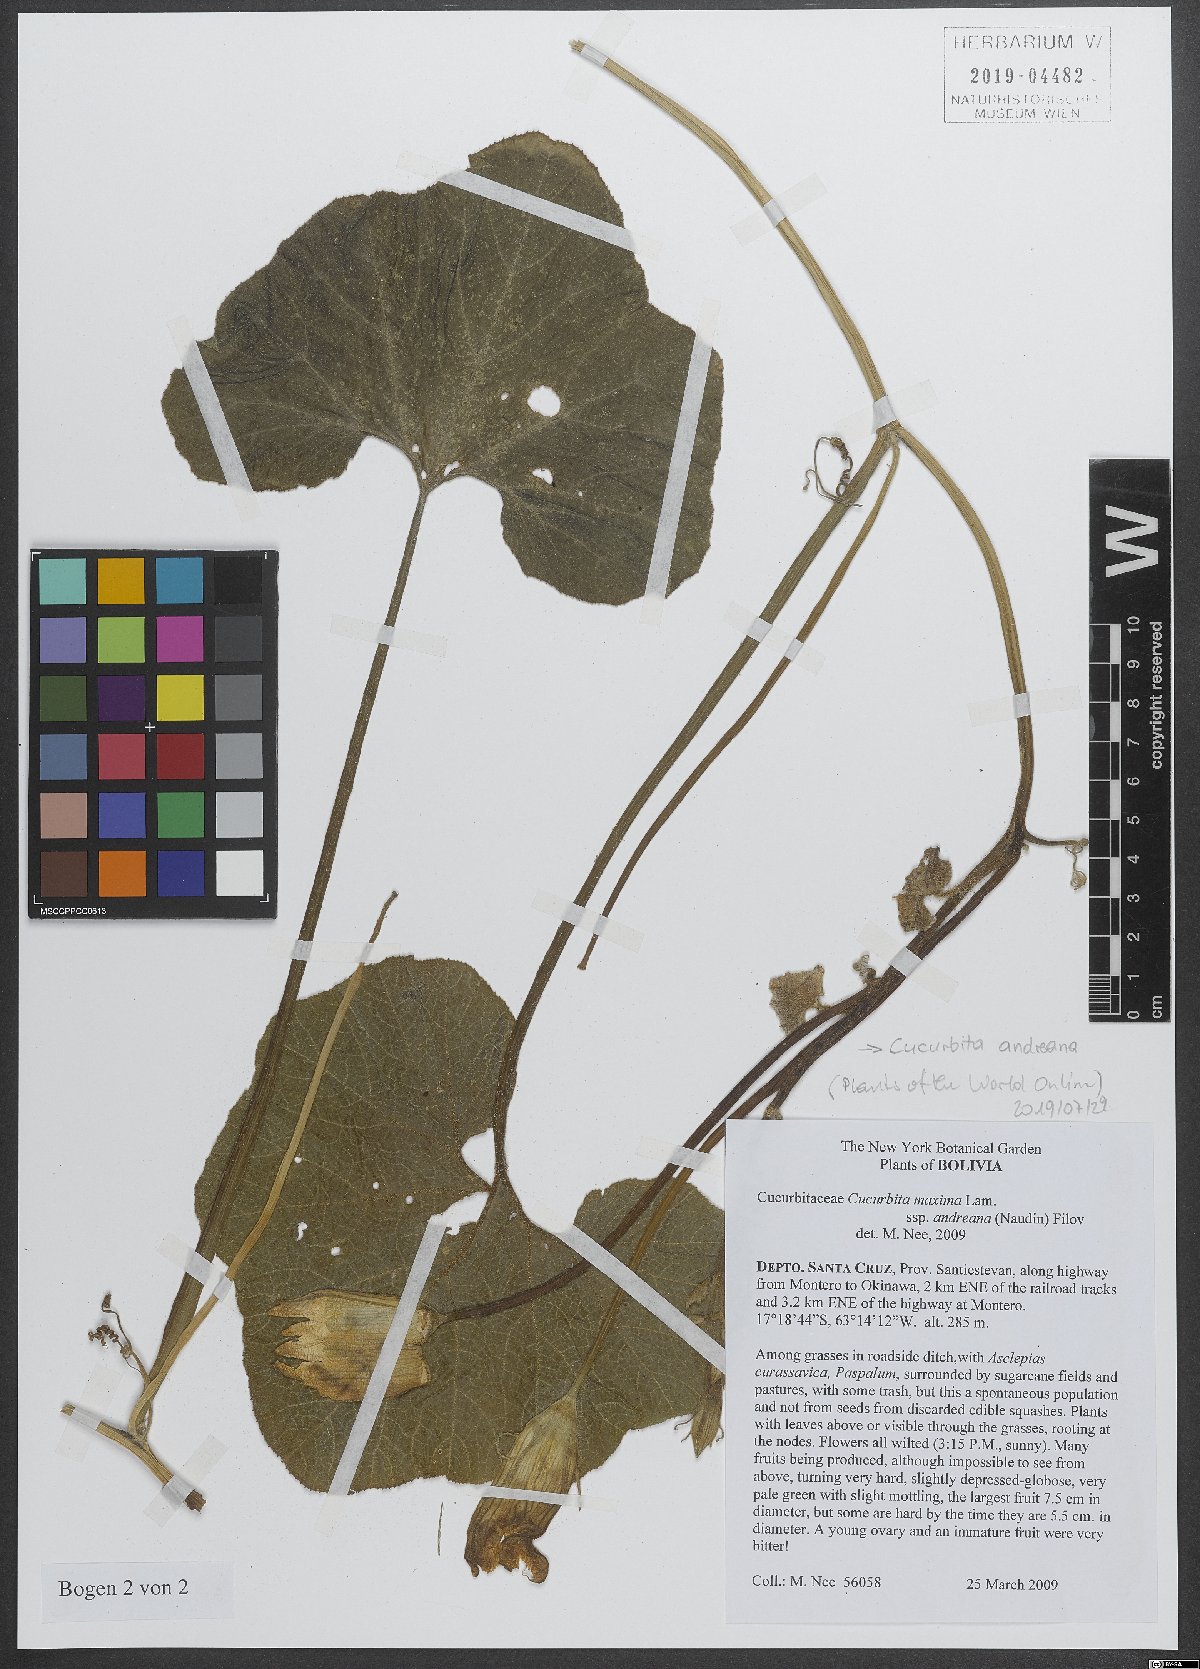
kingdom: Plantae
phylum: Tracheophyta
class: Magnoliopsida
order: Cucurbitales
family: Cucurbitaceae
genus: Cucurbita
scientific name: Cucurbita andreana
